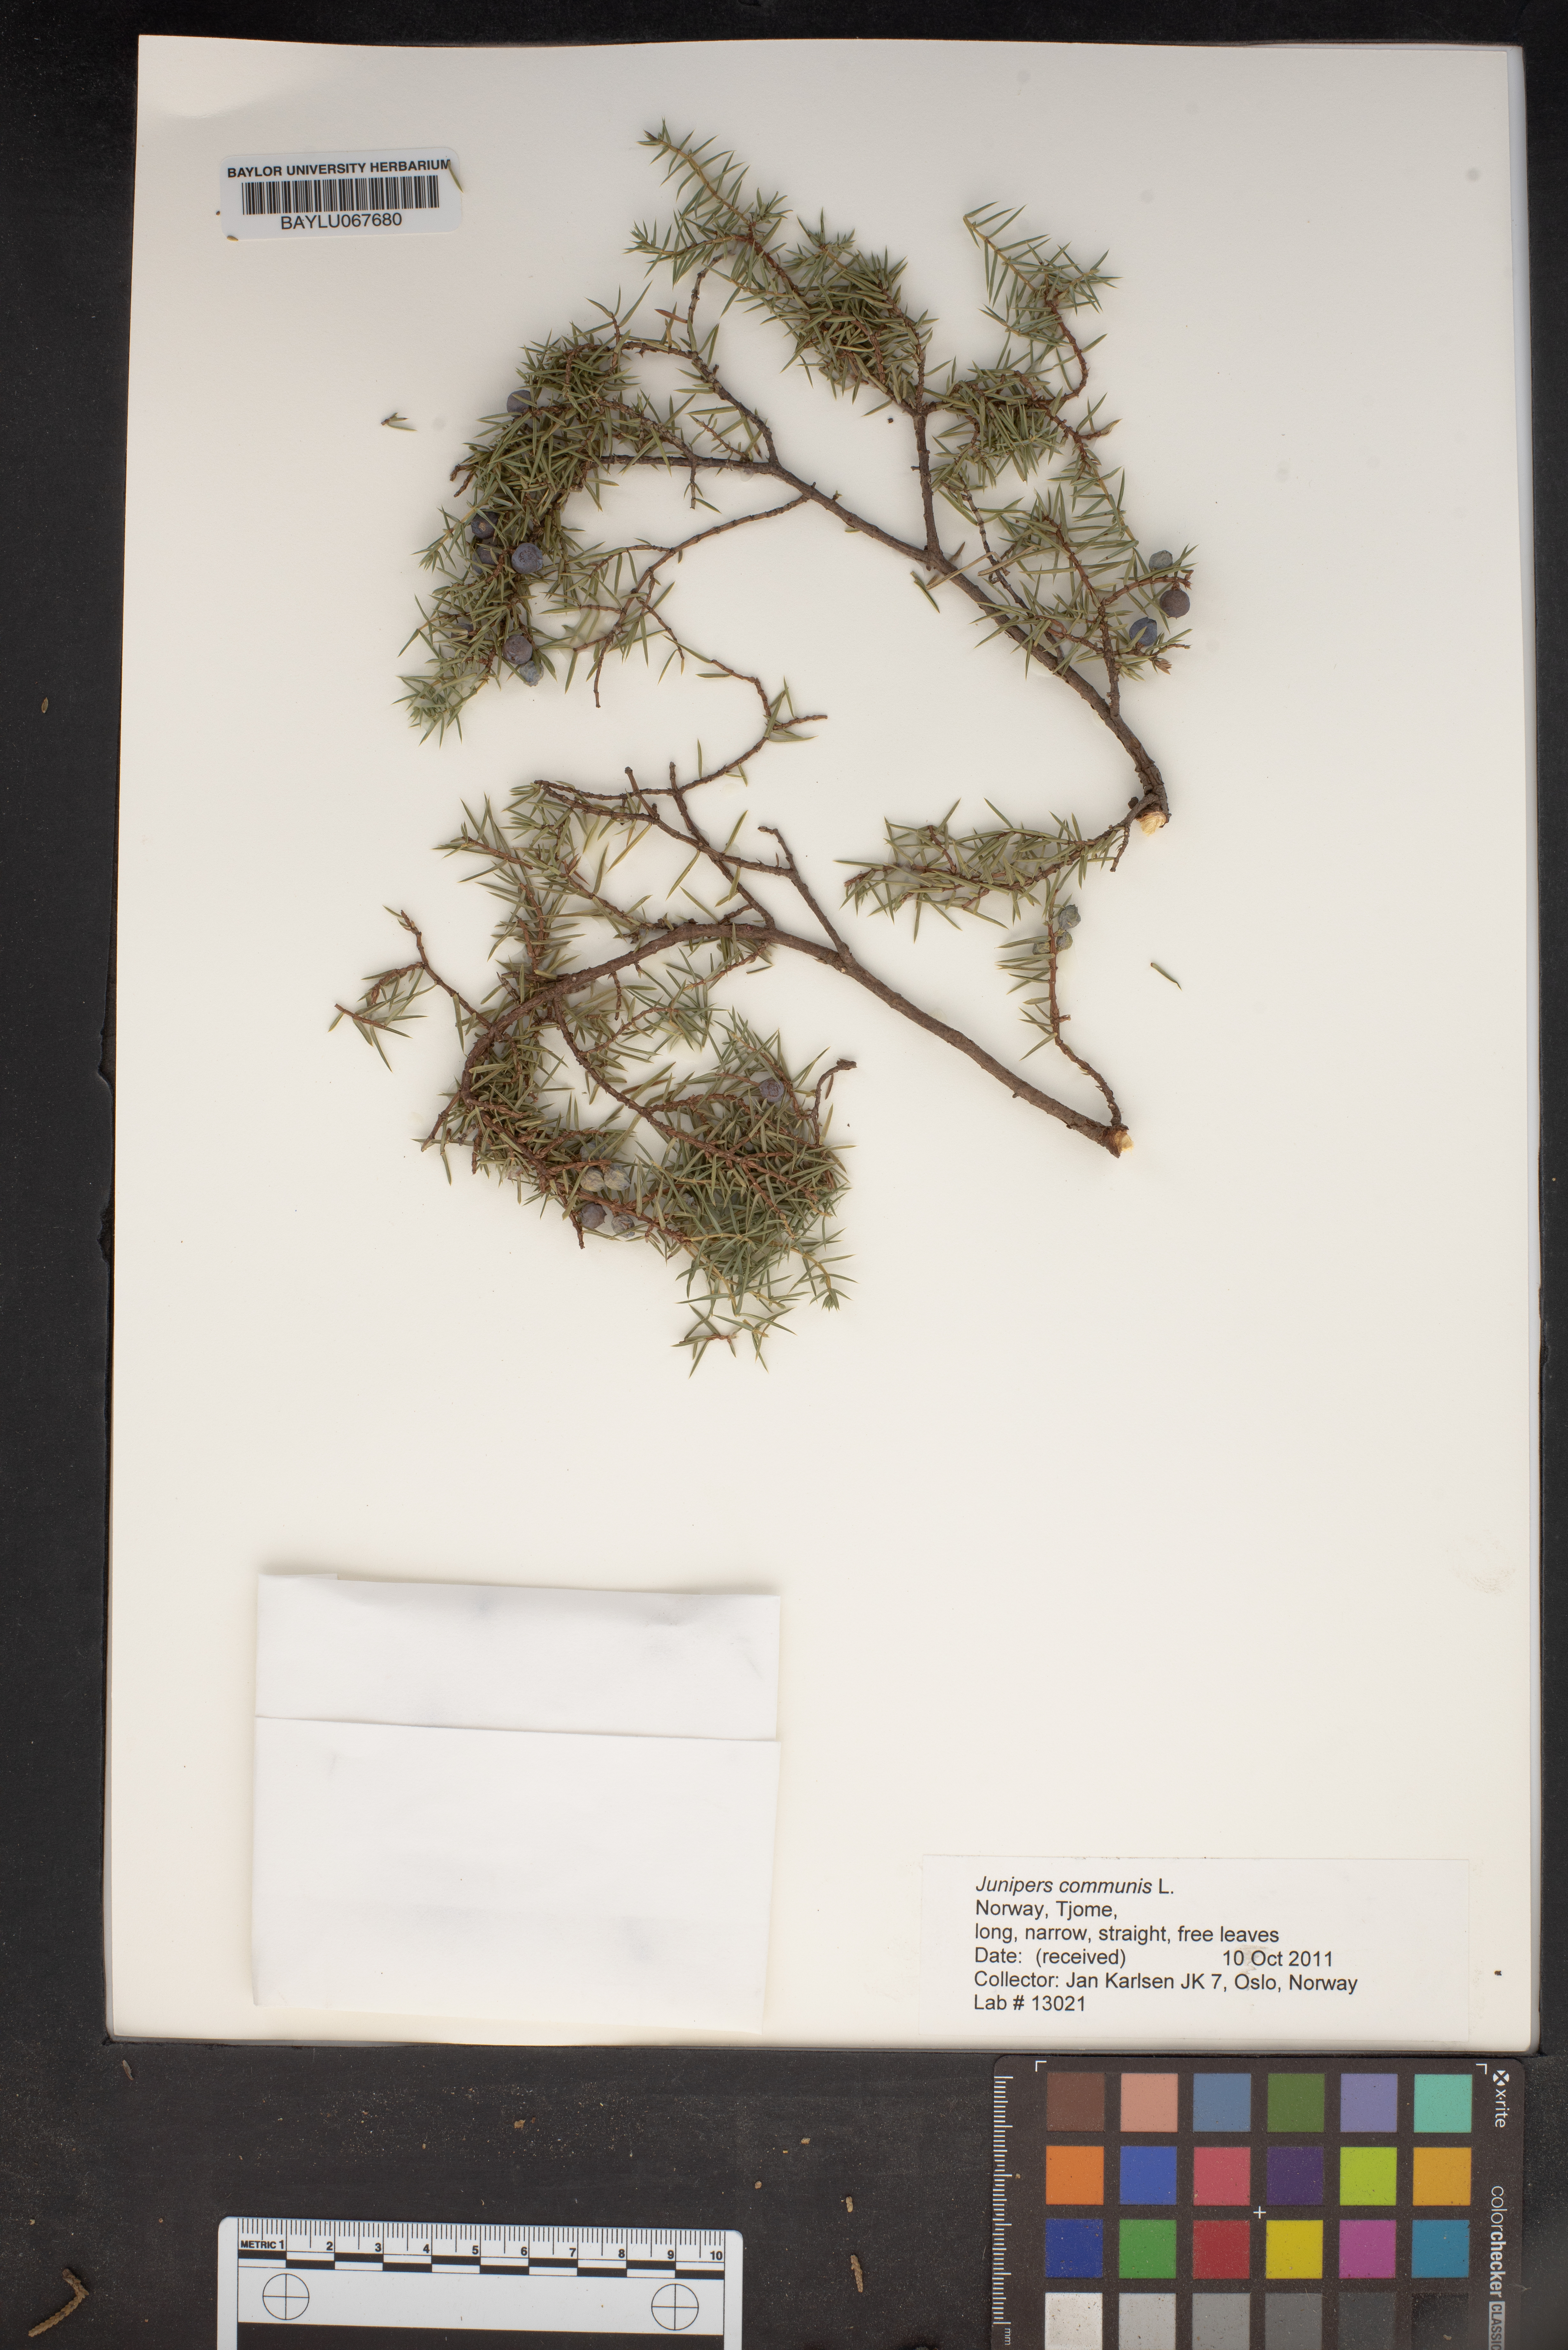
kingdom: Plantae
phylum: Tracheophyta
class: Pinopsida
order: Pinales
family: Cupressaceae
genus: Juniperus
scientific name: Juniperus communis
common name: Common juniper
